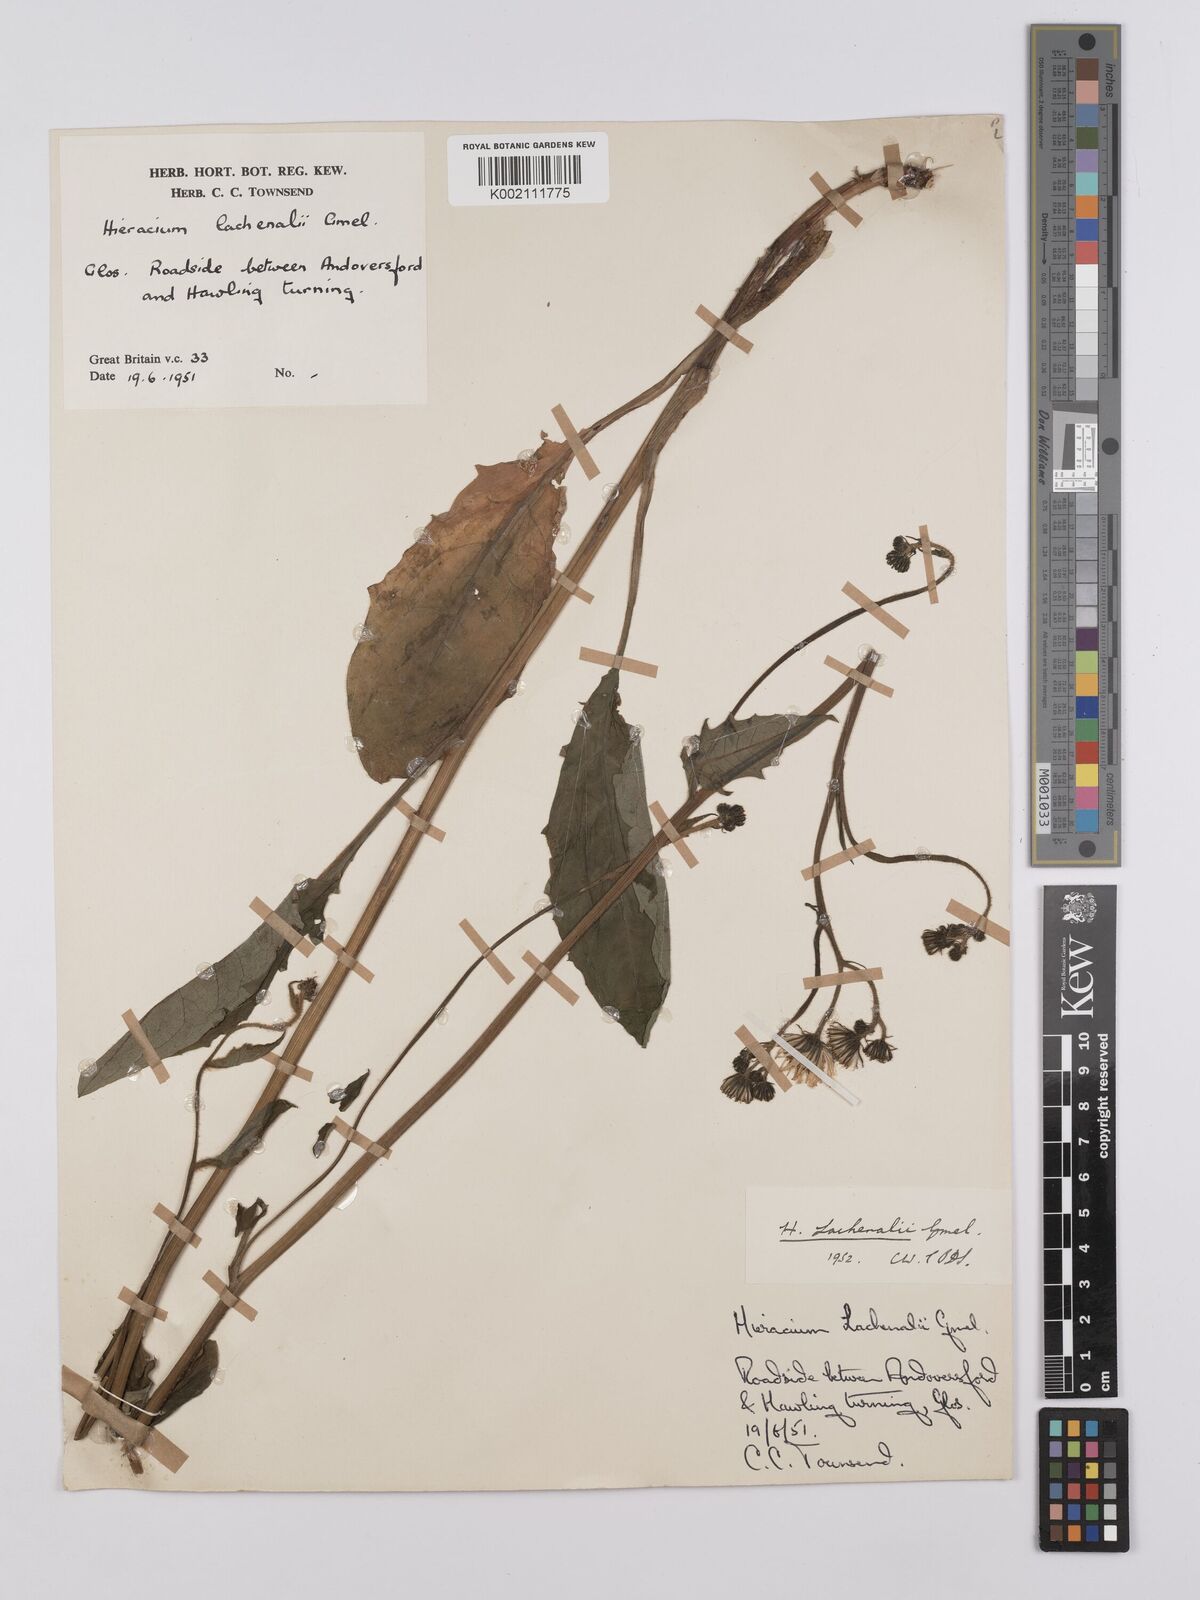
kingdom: Plantae
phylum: Tracheophyta
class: Magnoliopsida
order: Asterales
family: Asteraceae
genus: Hieracium
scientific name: Hieracium lachenalii
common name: Common hawkweed
